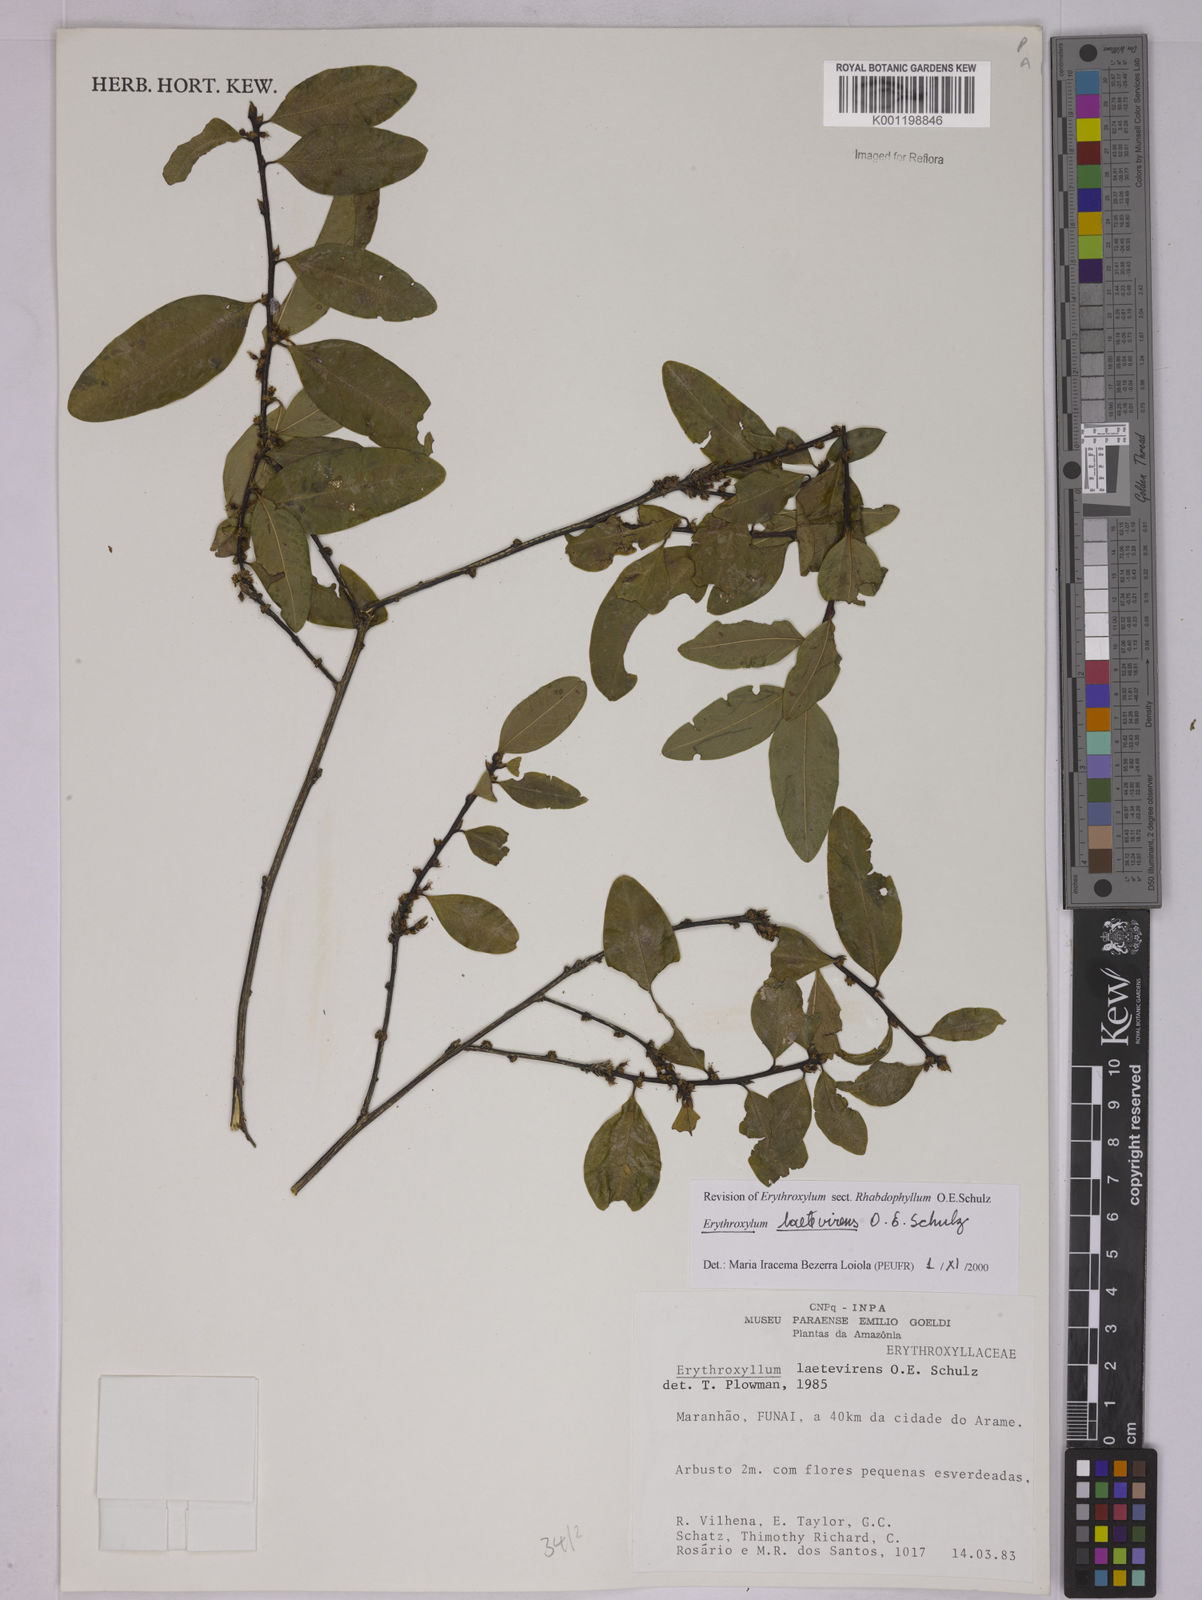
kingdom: Plantae
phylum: Tracheophyta
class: Magnoliopsida
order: Malpighiales
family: Erythroxylaceae
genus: Erythroxylum
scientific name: Erythroxylum laetevirens
